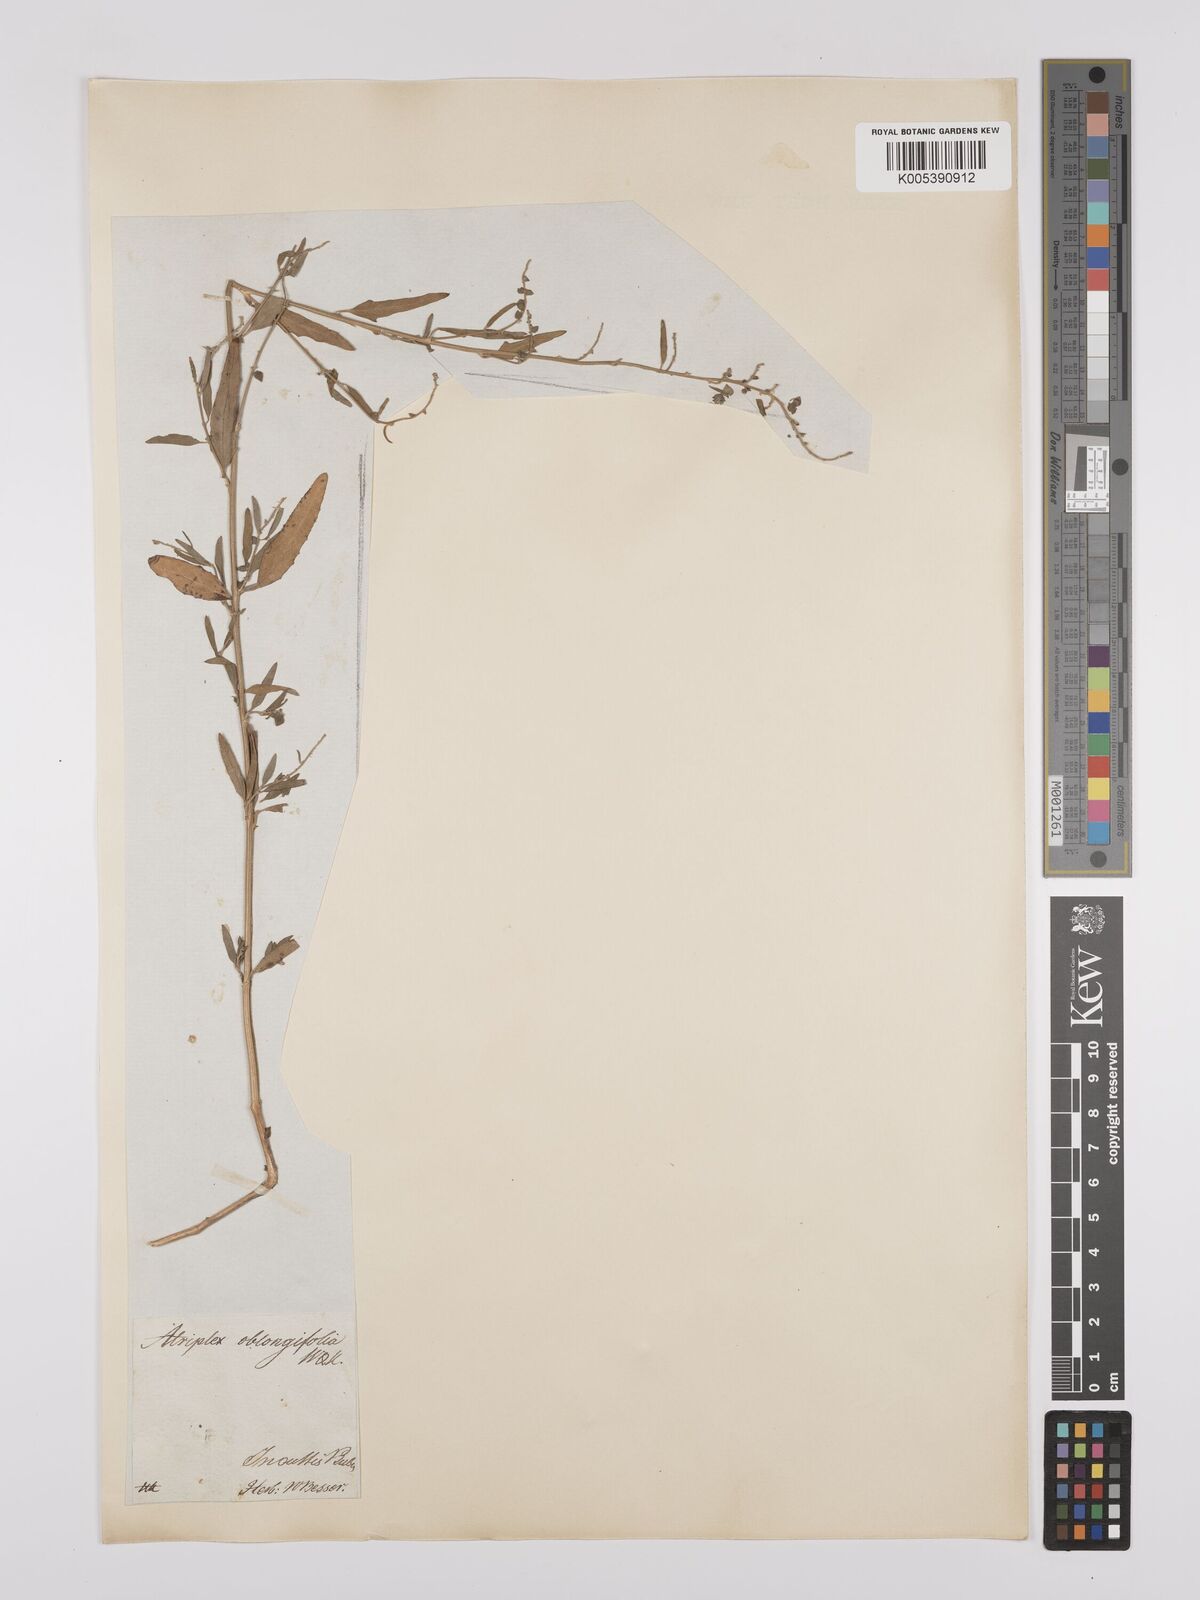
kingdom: Plantae
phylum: Tracheophyta
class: Magnoliopsida
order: Caryophyllales
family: Amaranthaceae
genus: Atriplex
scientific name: Atriplex
